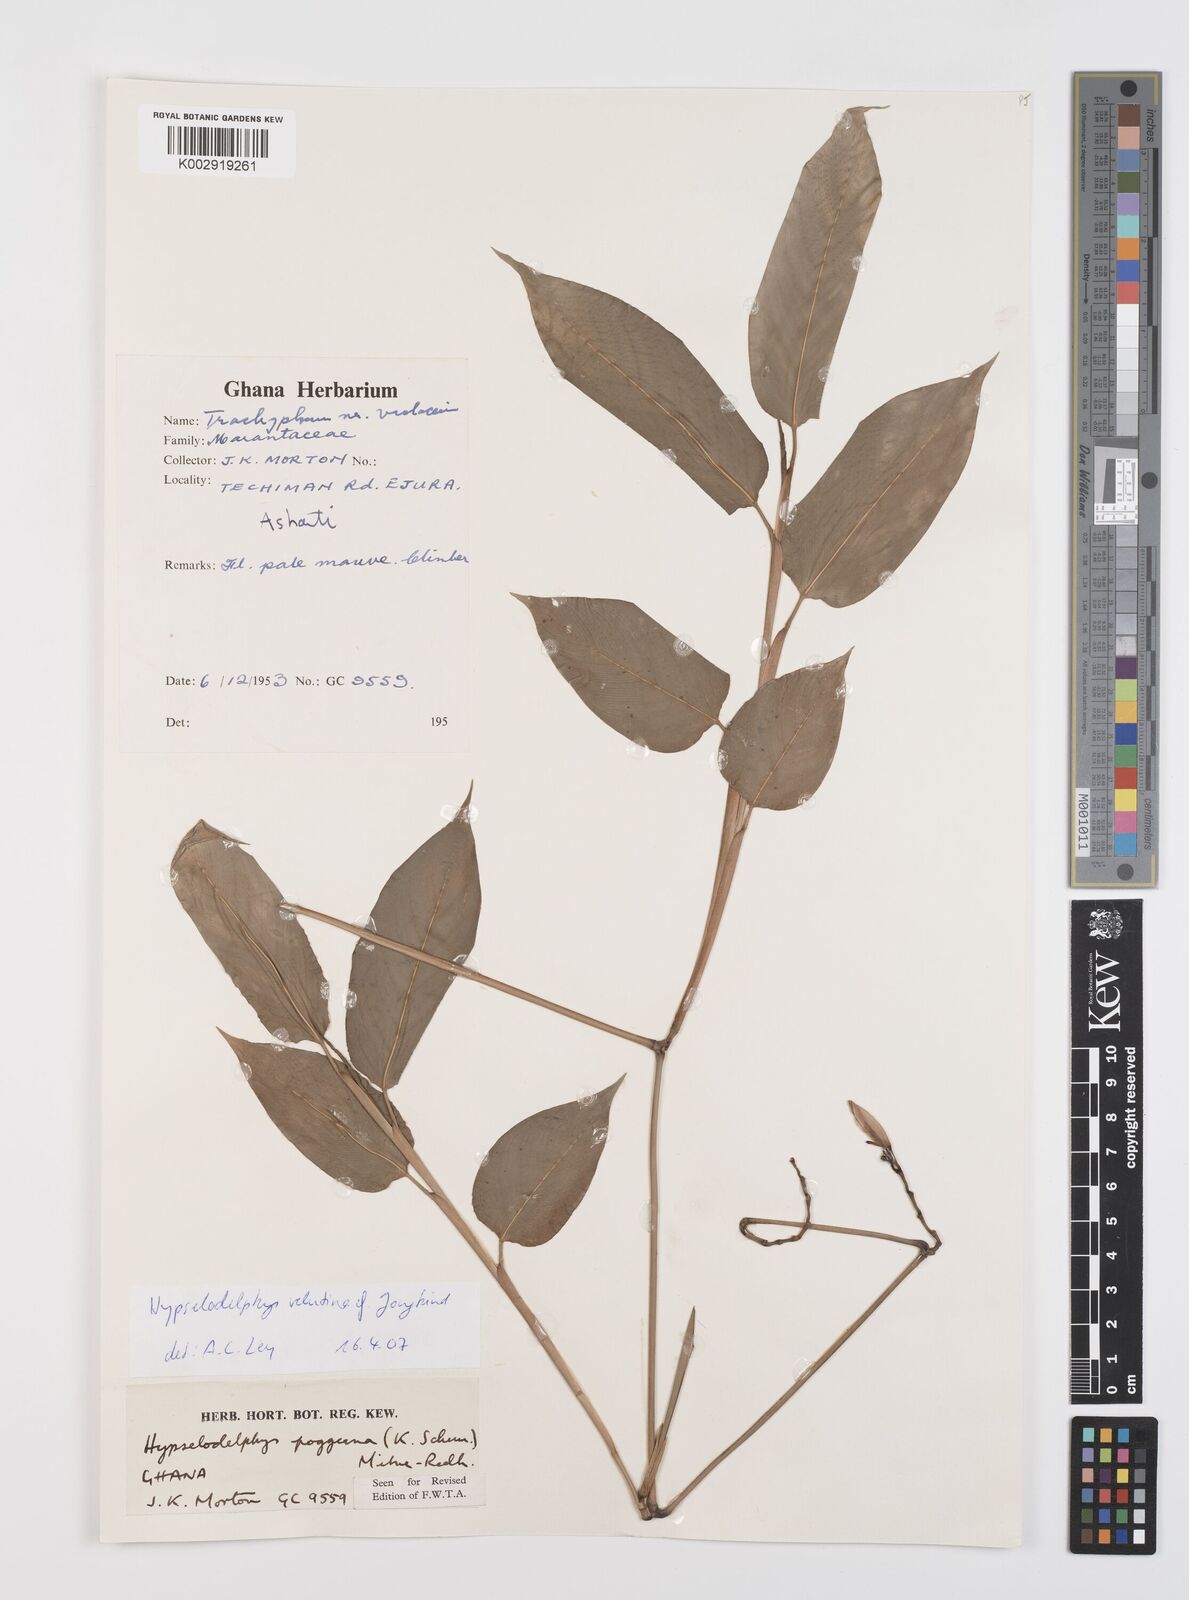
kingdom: Plantae
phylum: Tracheophyta
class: Liliopsida
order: Zingiberales
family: Marantaceae
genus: Hypselodelphys
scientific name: Hypselodelphys velutina
